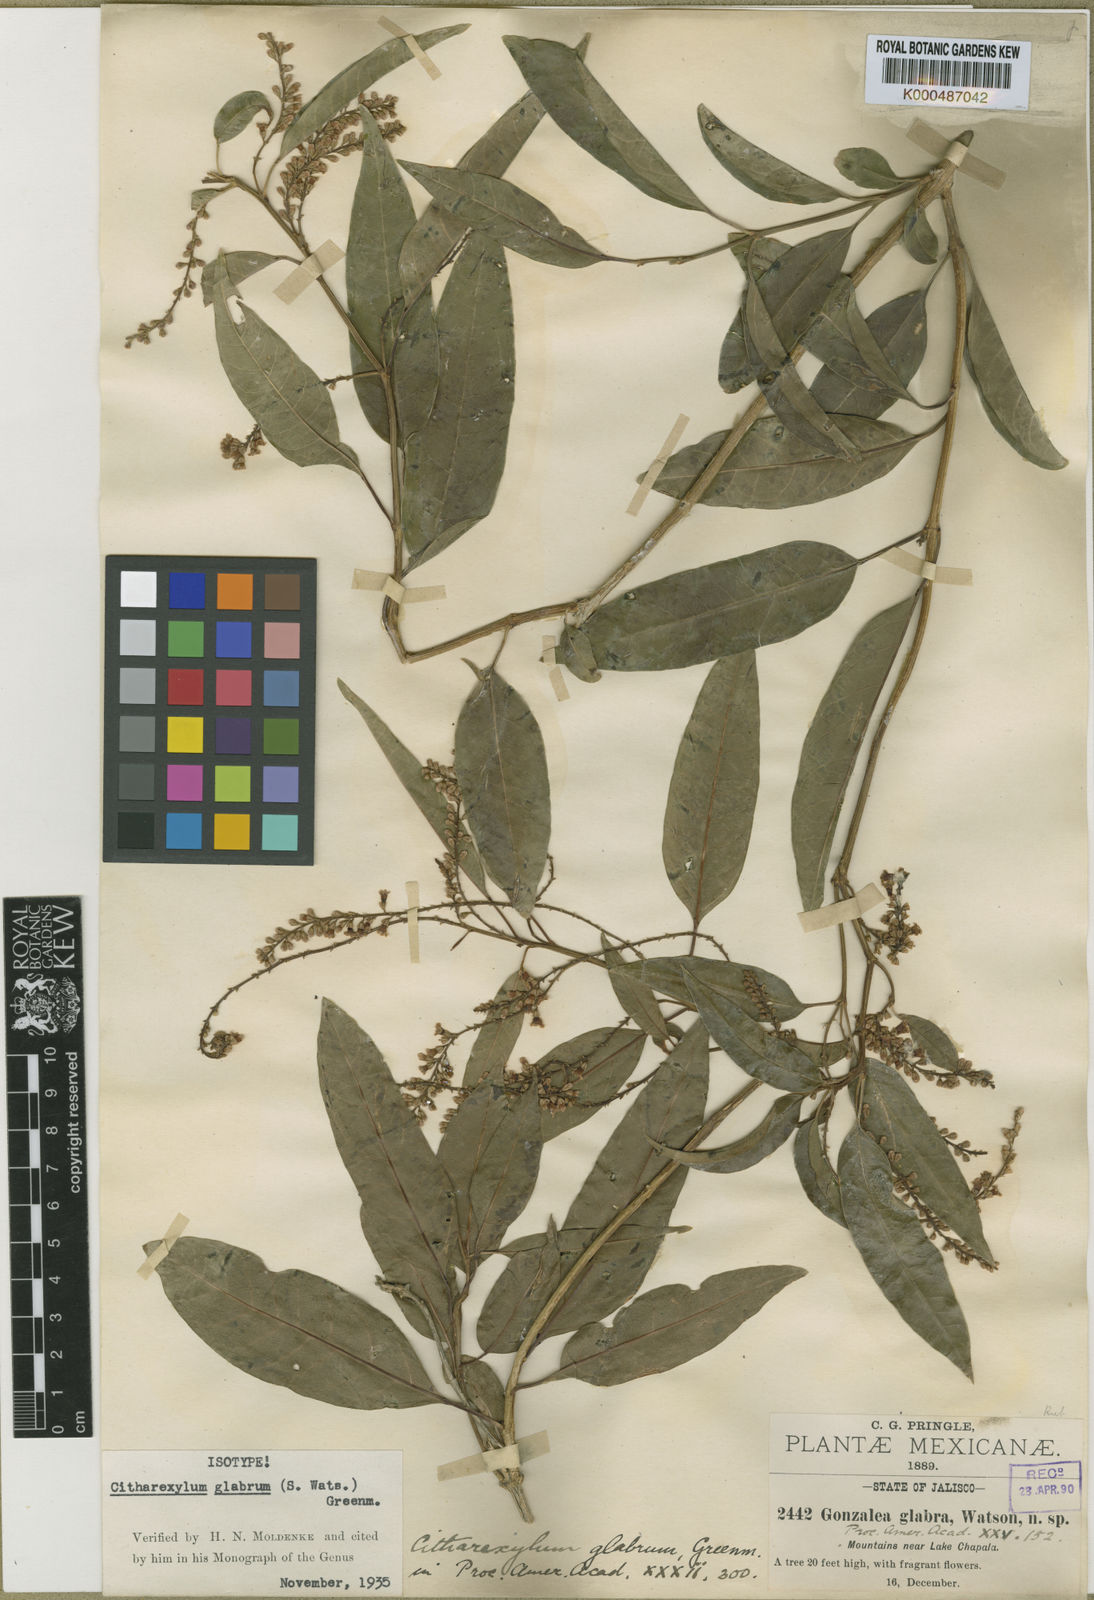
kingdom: Plantae
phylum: Tracheophyta
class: Magnoliopsida
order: Lamiales
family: Verbenaceae
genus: Citharexylum
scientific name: Citharexylum glabrum
